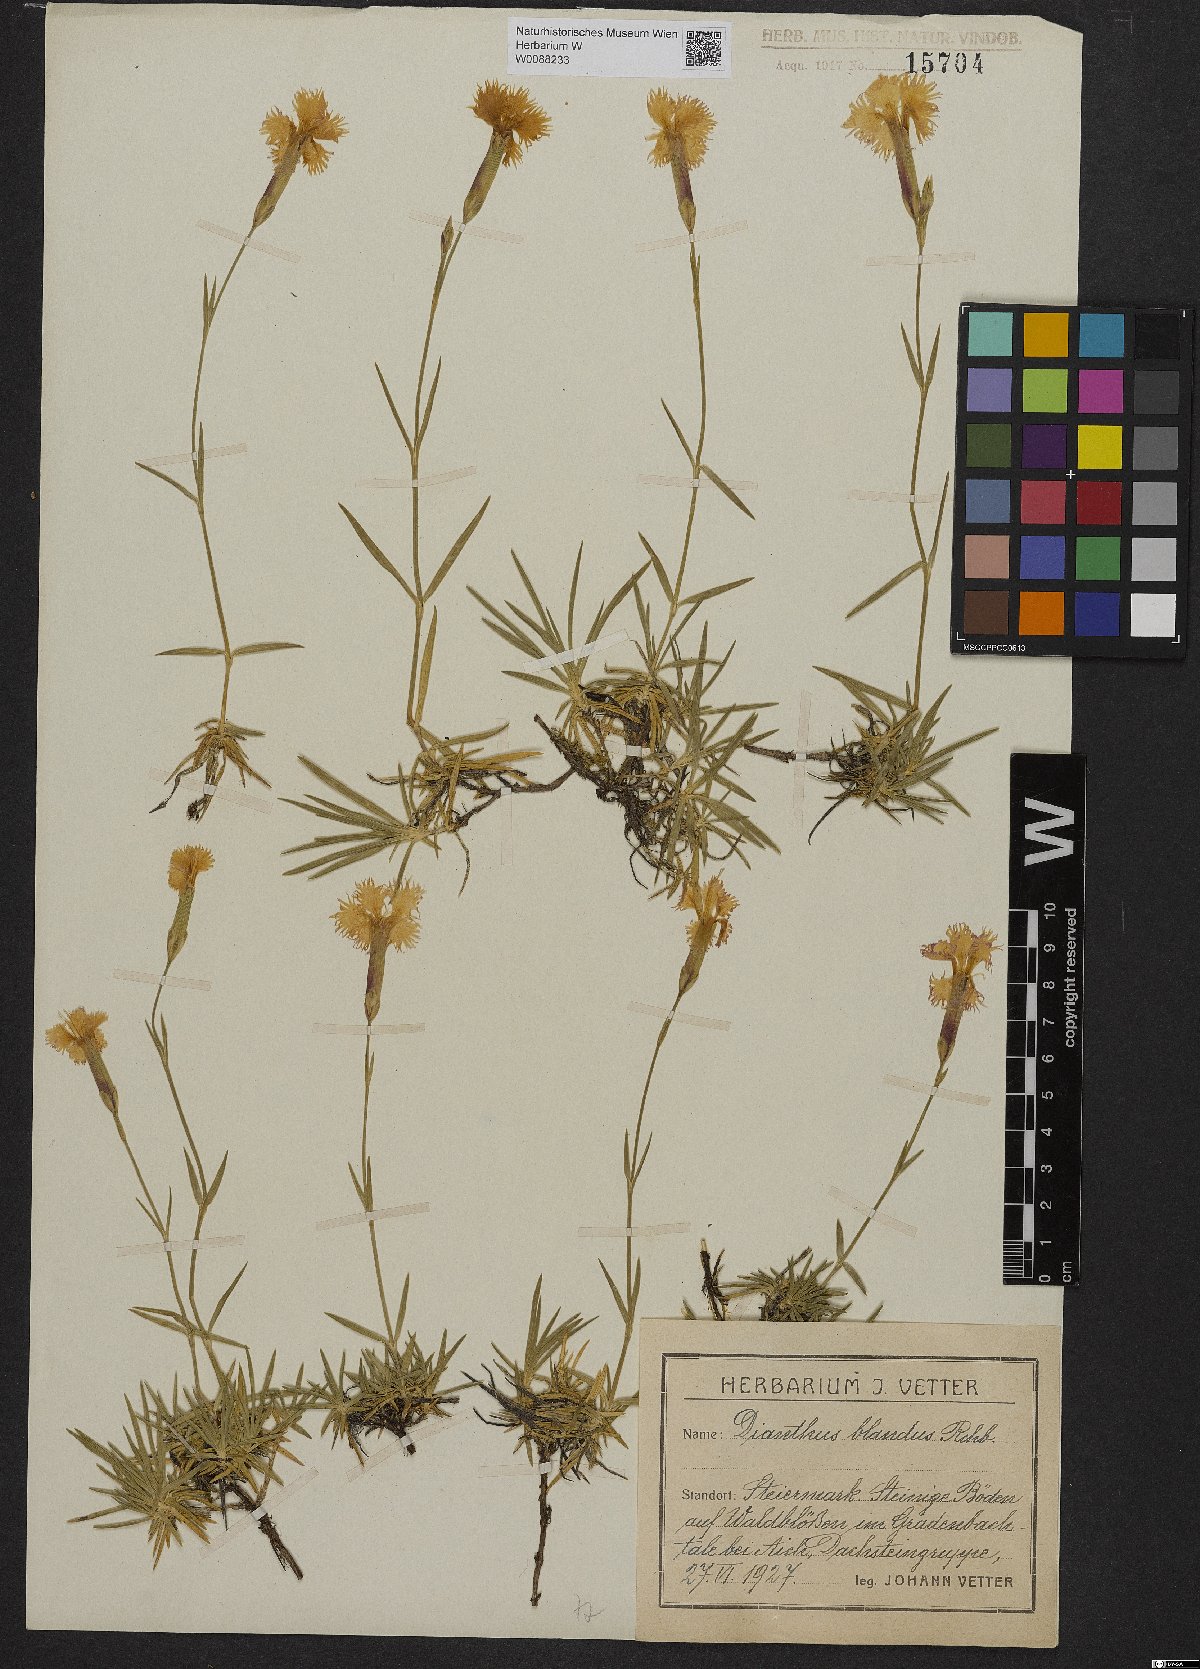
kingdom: Plantae
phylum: Tracheophyta
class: Magnoliopsida
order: Caryophyllales
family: Caryophyllaceae
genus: Dianthus
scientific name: Dianthus plumarius
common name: Pink
